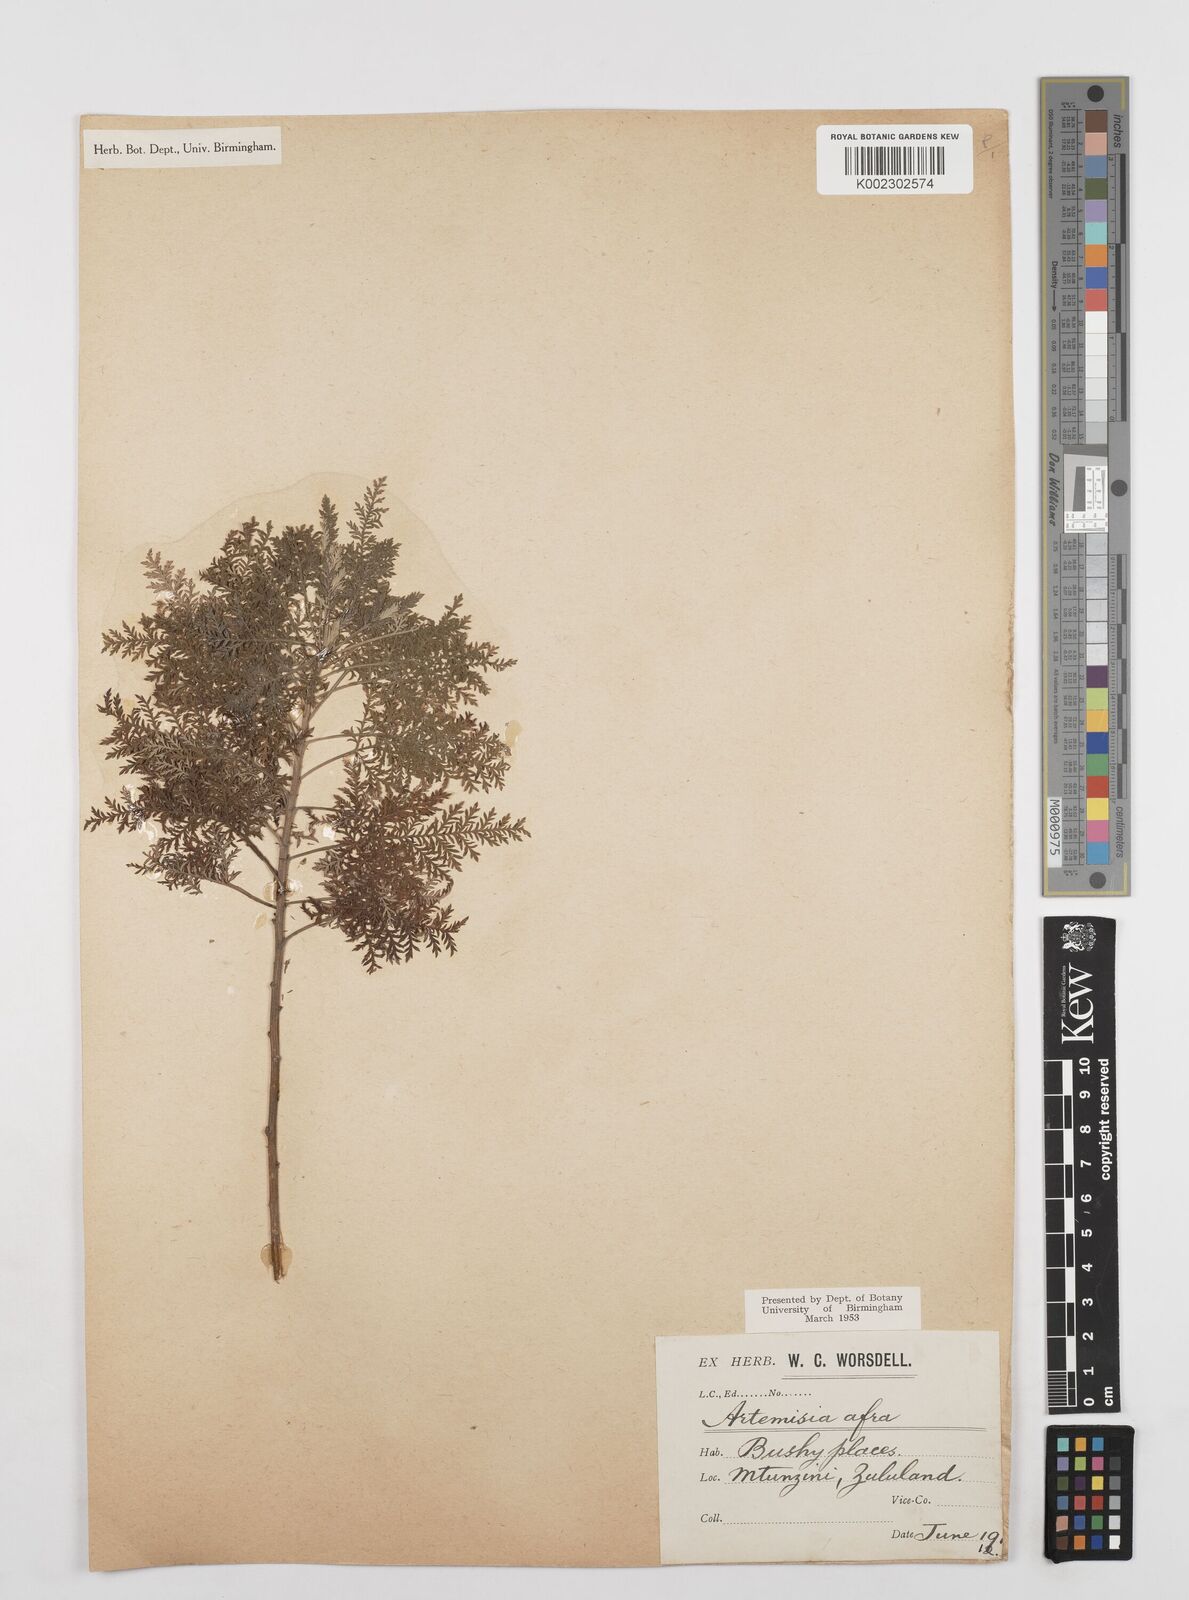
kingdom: Plantae
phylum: Tracheophyta
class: Magnoliopsida
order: Asterales
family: Asteraceae
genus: Artemisia
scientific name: Artemisia afra
